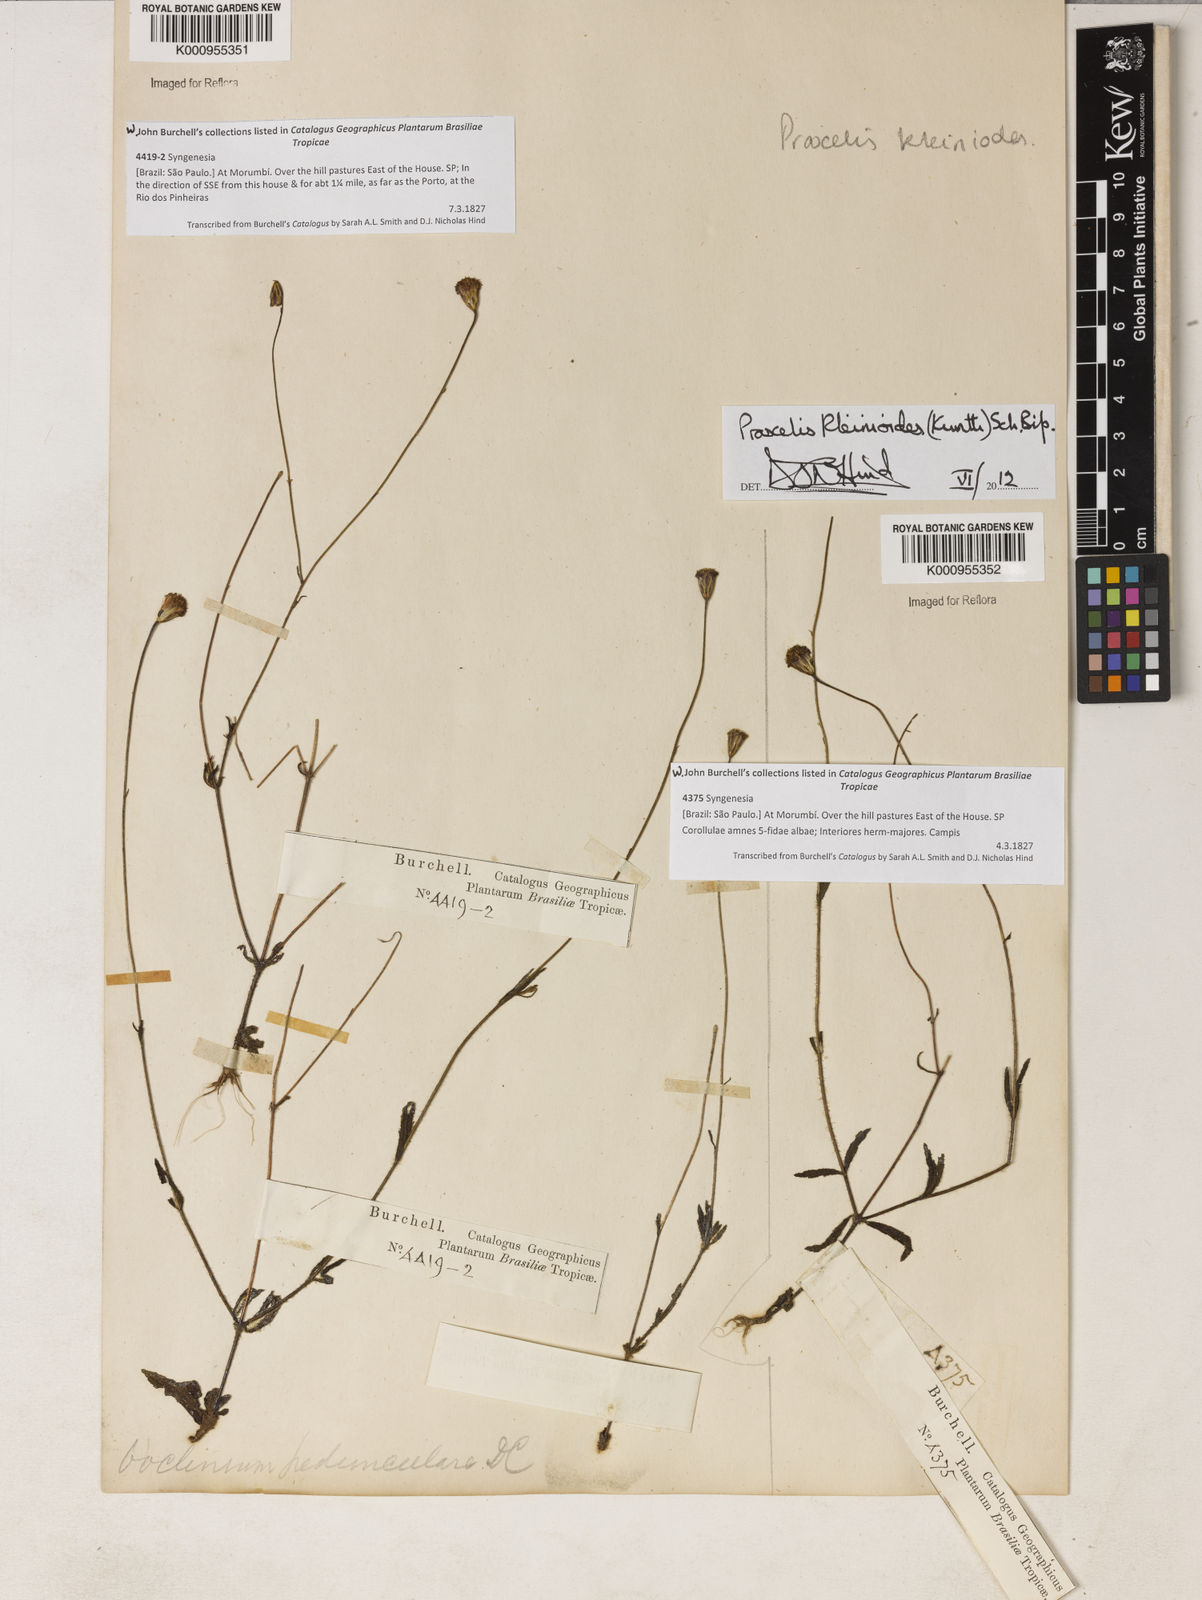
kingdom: Plantae
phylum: Tracheophyta
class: Magnoliopsida
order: Asterales
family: Asteraceae
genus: Praxelis
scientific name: Praxelis kleinioides
